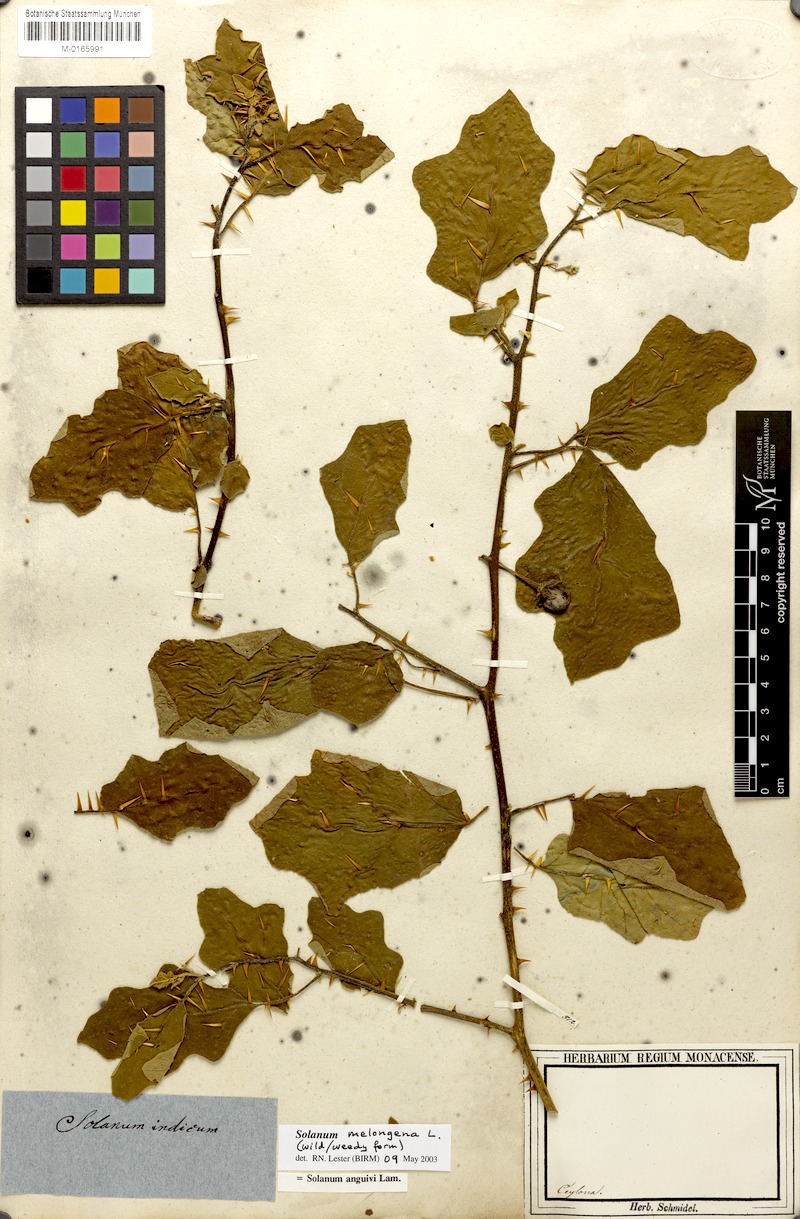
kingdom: Plantae
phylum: Tracheophyta
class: Magnoliopsida
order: Solanales
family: Solanaceae
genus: Solanum
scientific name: Solanum melongena
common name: Eggplant
